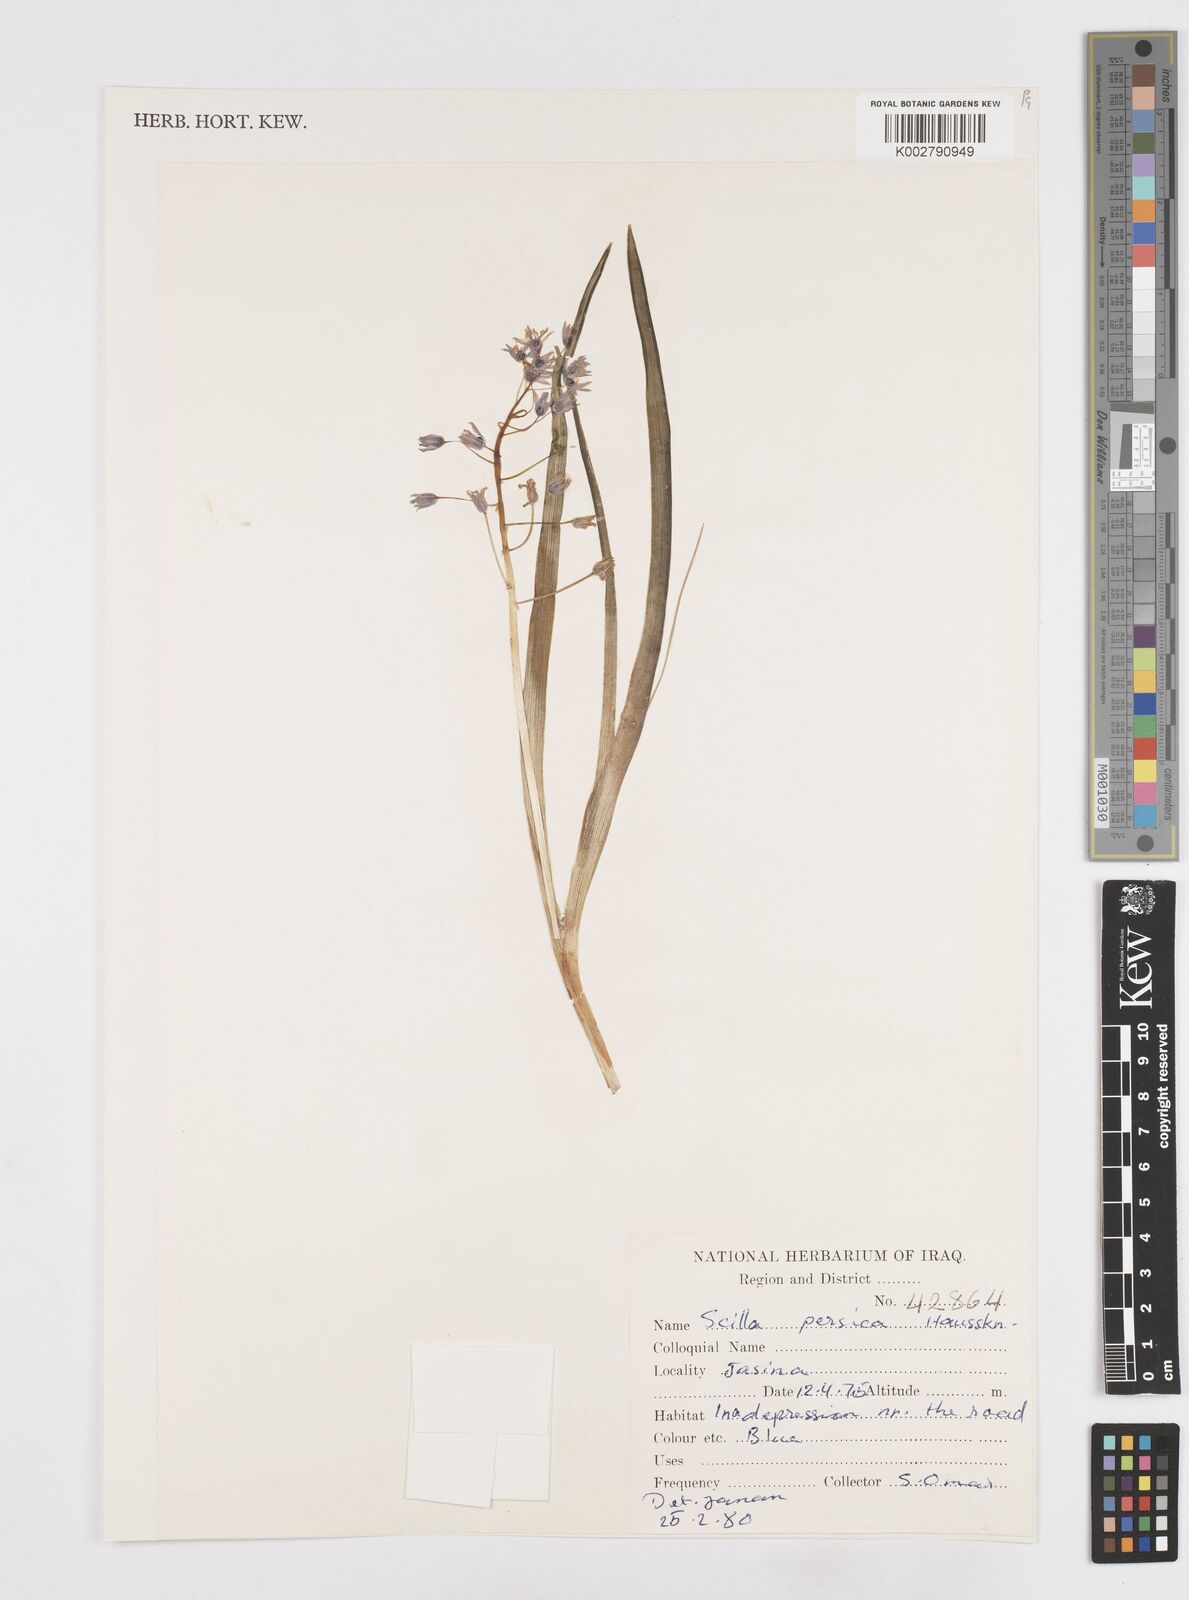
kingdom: Plantae
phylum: Tracheophyta
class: Liliopsida
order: Asparagales
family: Asparagaceae
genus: Zagrosia
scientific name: Zagrosia persica
